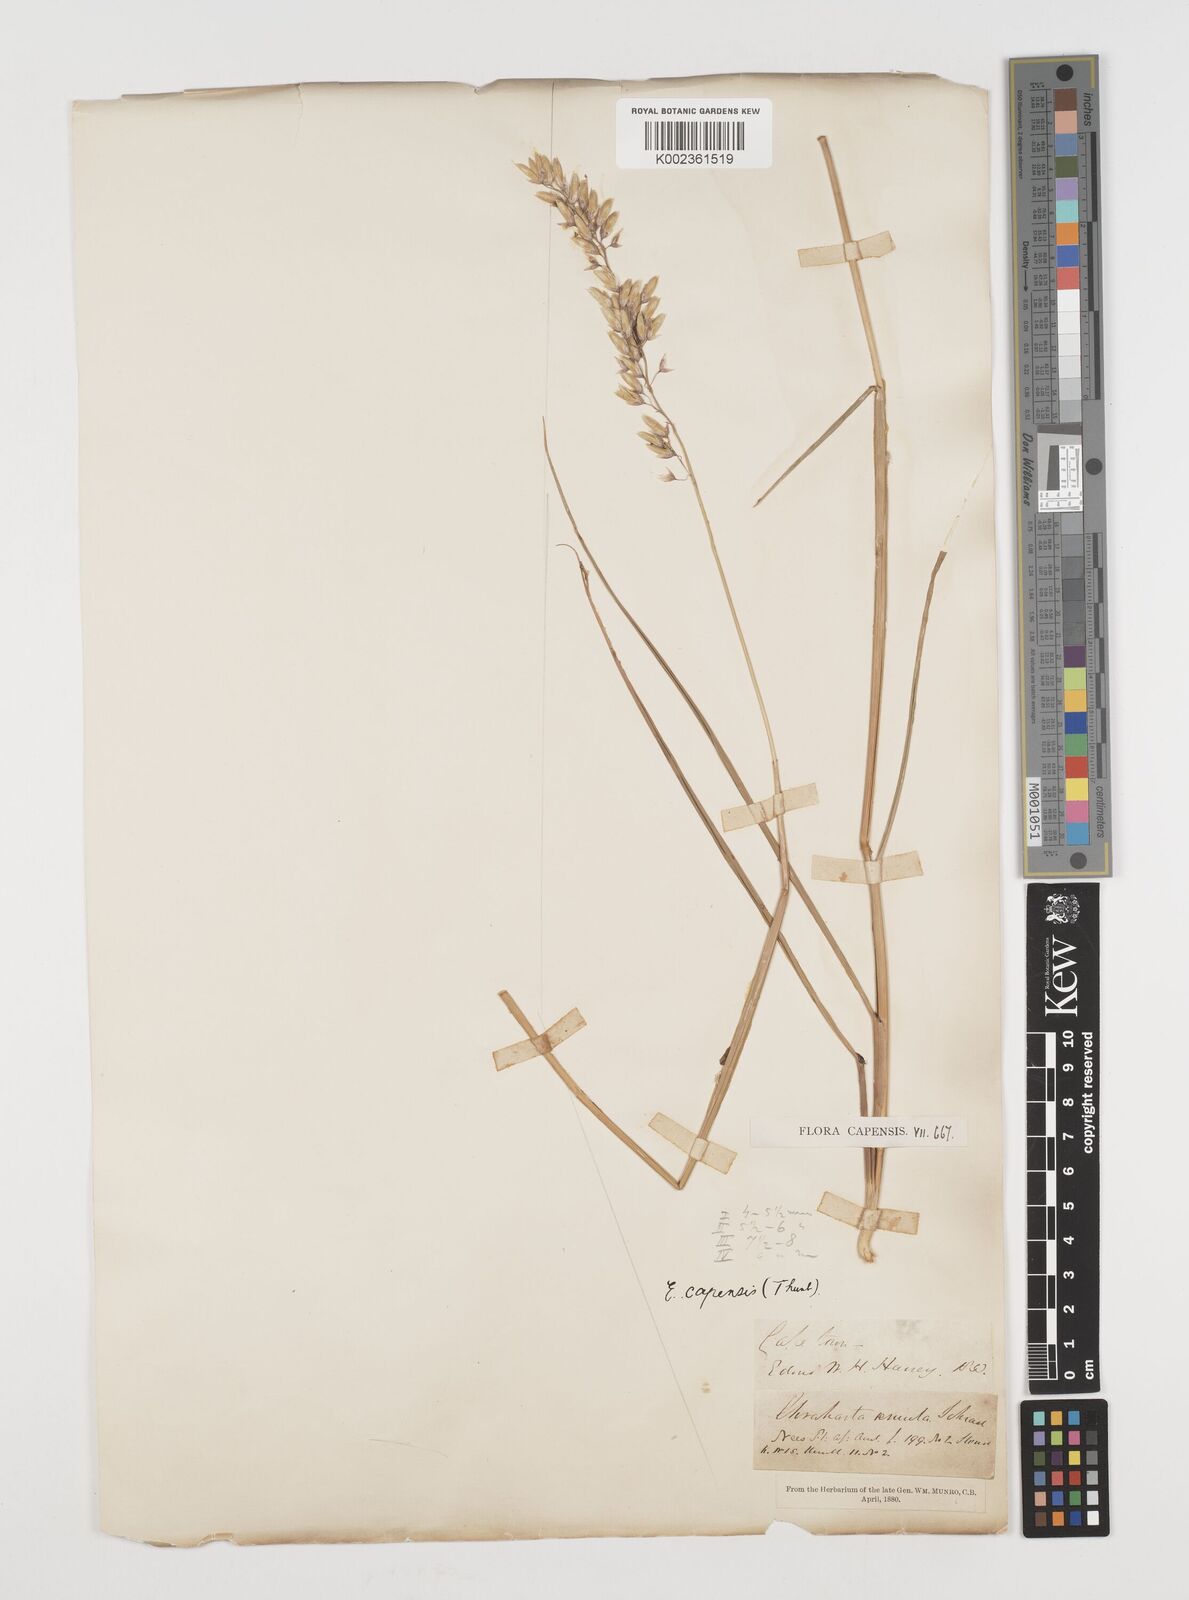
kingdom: Plantae
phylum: Tracheophyta
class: Liliopsida
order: Poales
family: Poaceae
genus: Ehrharta
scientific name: Ehrharta capensis
